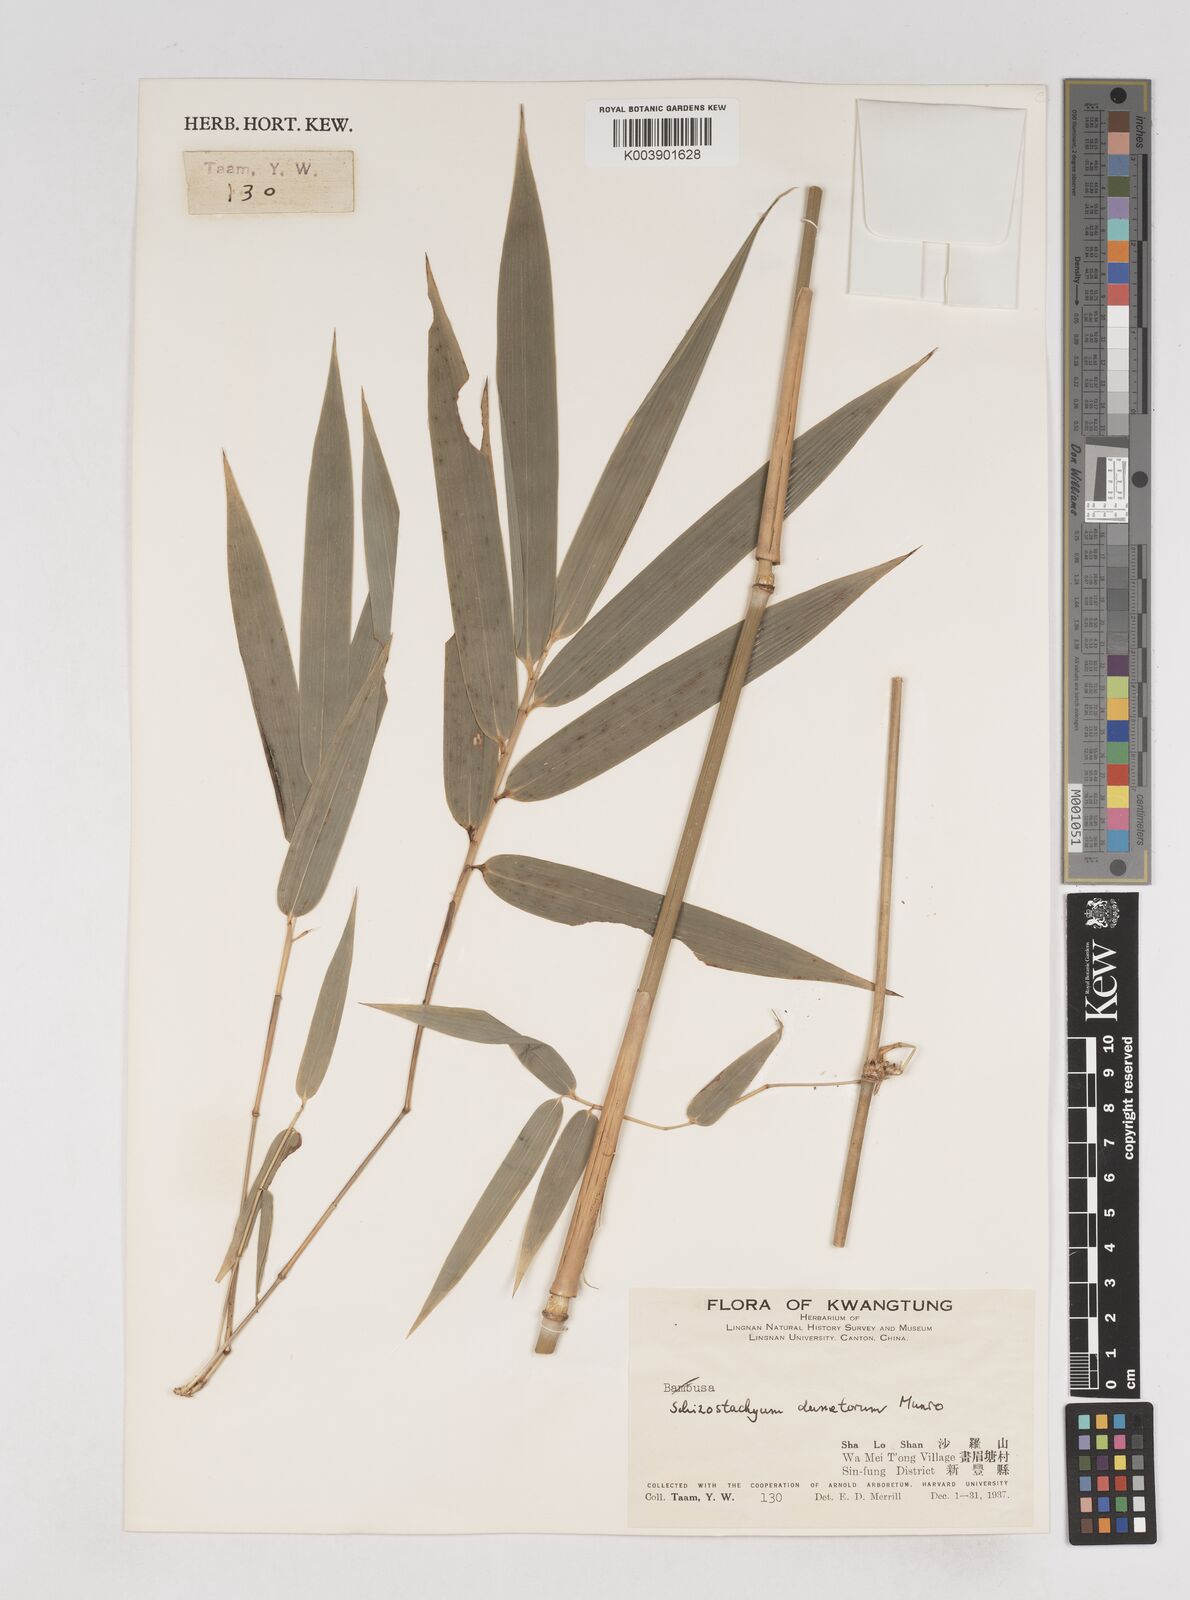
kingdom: Plantae
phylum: Tracheophyta
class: Liliopsida
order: Poales
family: Poaceae
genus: Schizostachyum
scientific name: Schizostachyum dumetorum
